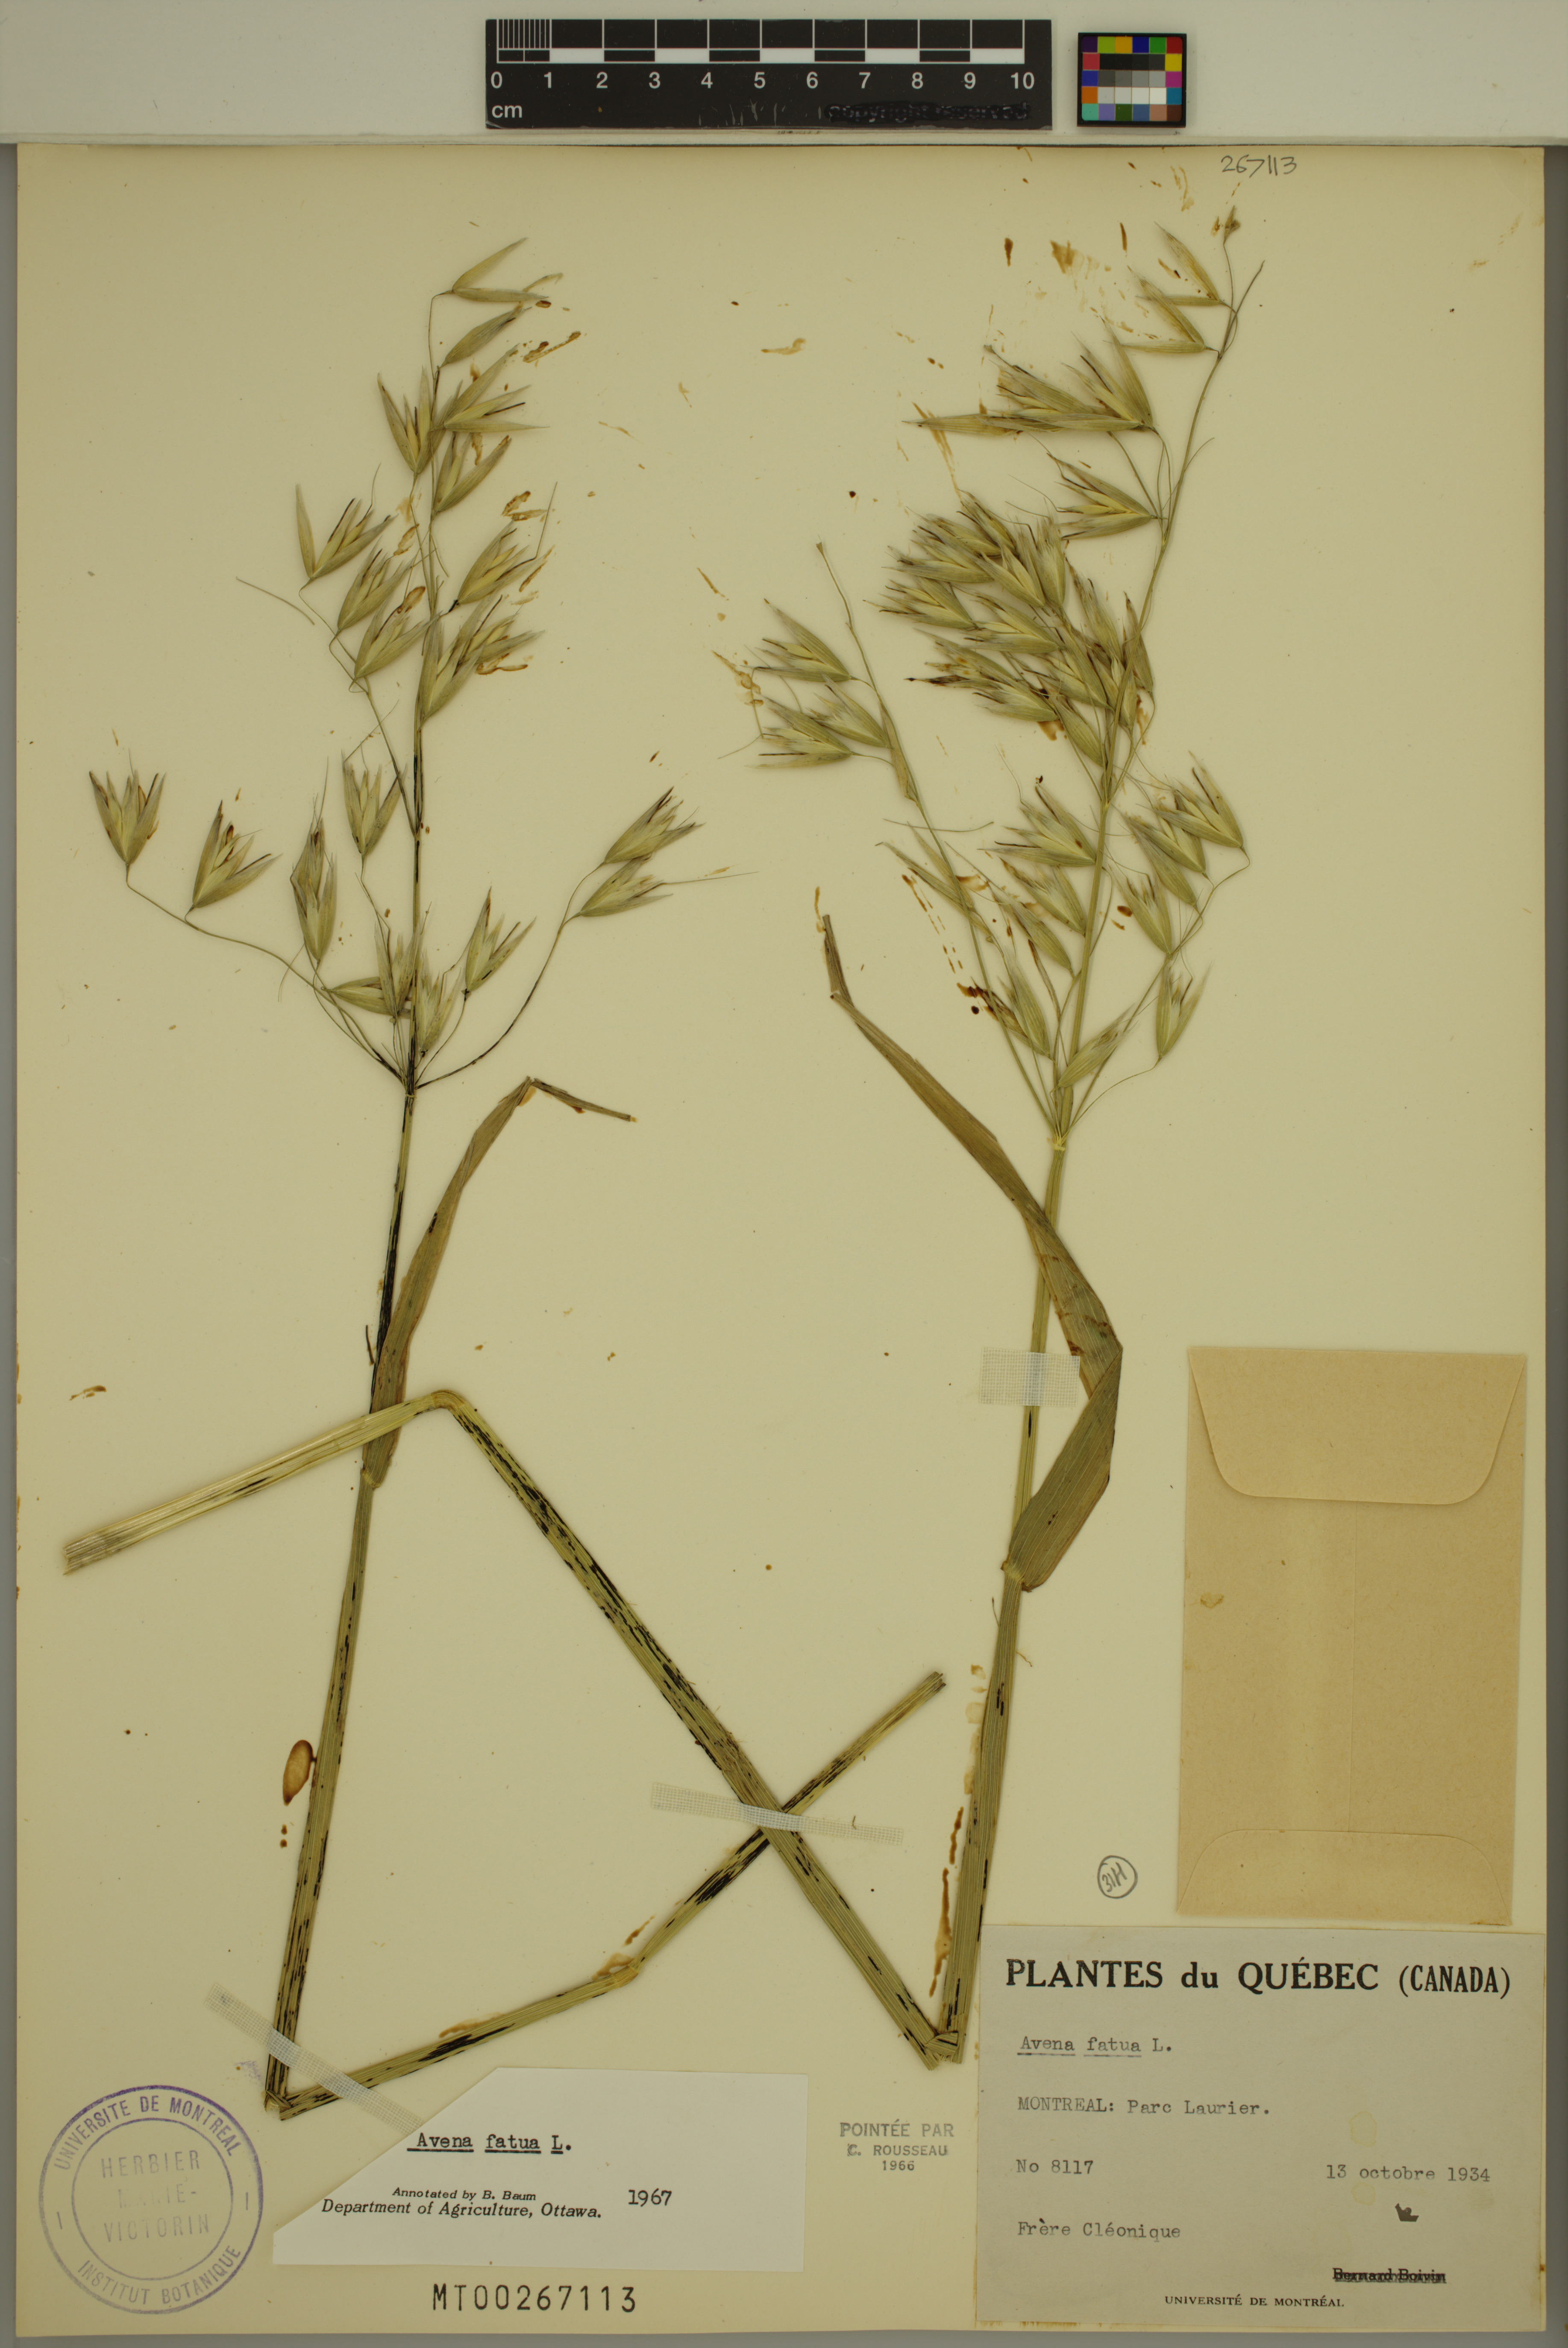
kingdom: Plantae
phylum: Tracheophyta
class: Liliopsida
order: Poales
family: Poaceae
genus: Avena
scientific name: Avena fatua
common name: Wild oat
